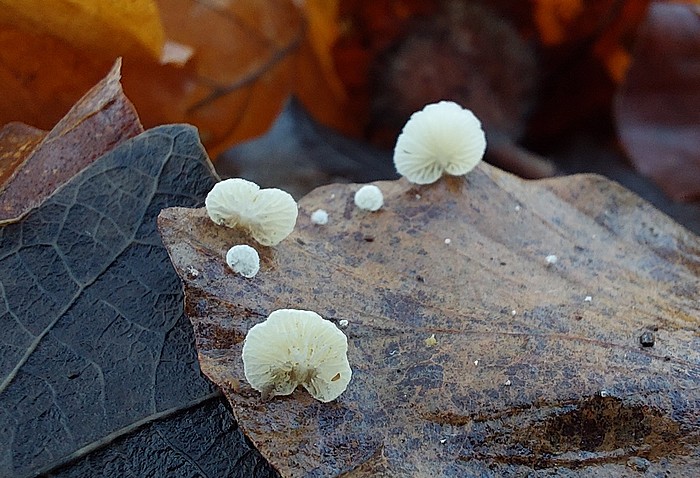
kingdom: Fungi
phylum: Basidiomycota
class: Agaricomycetes
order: Agaricales
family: Crepidotaceae
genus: Crepidotus
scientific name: Crepidotus epibryus
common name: førne-muslingesvamp
